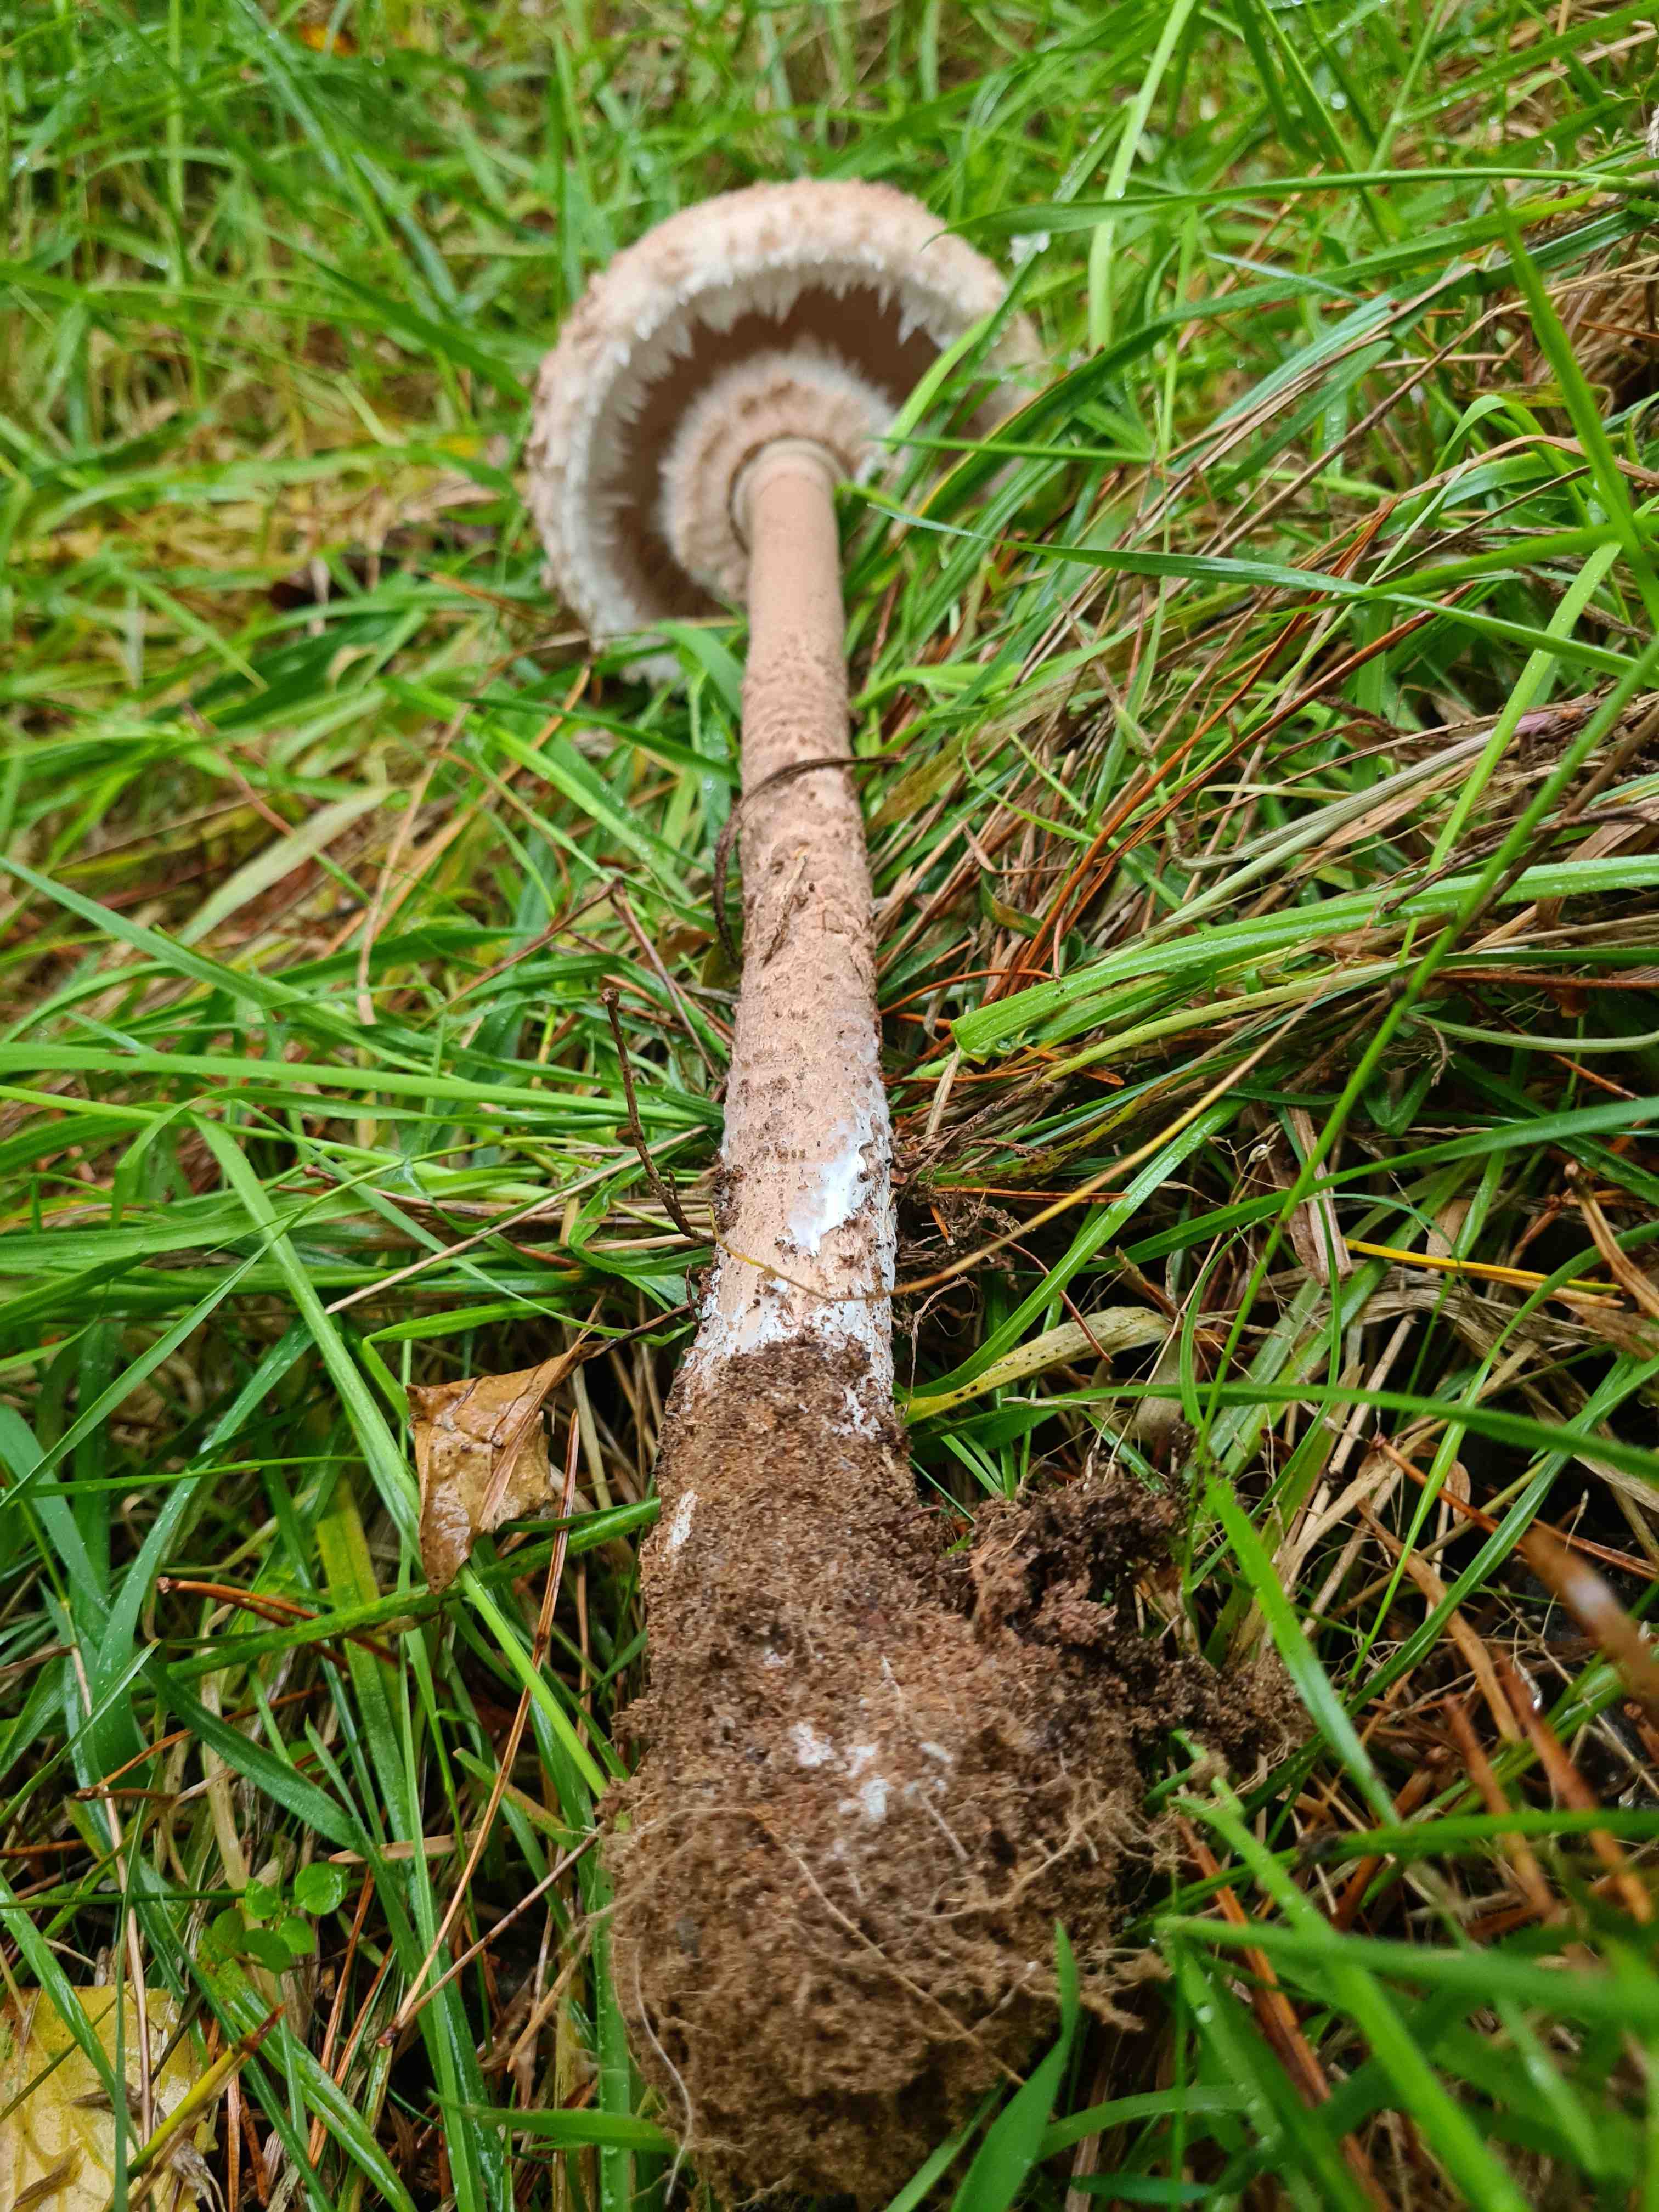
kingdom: Fungi
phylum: Basidiomycota
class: Agaricomycetes
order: Agaricales
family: Agaricaceae
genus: Macrolepiota
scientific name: Macrolepiota procera
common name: stor kæmpeparasolhat
